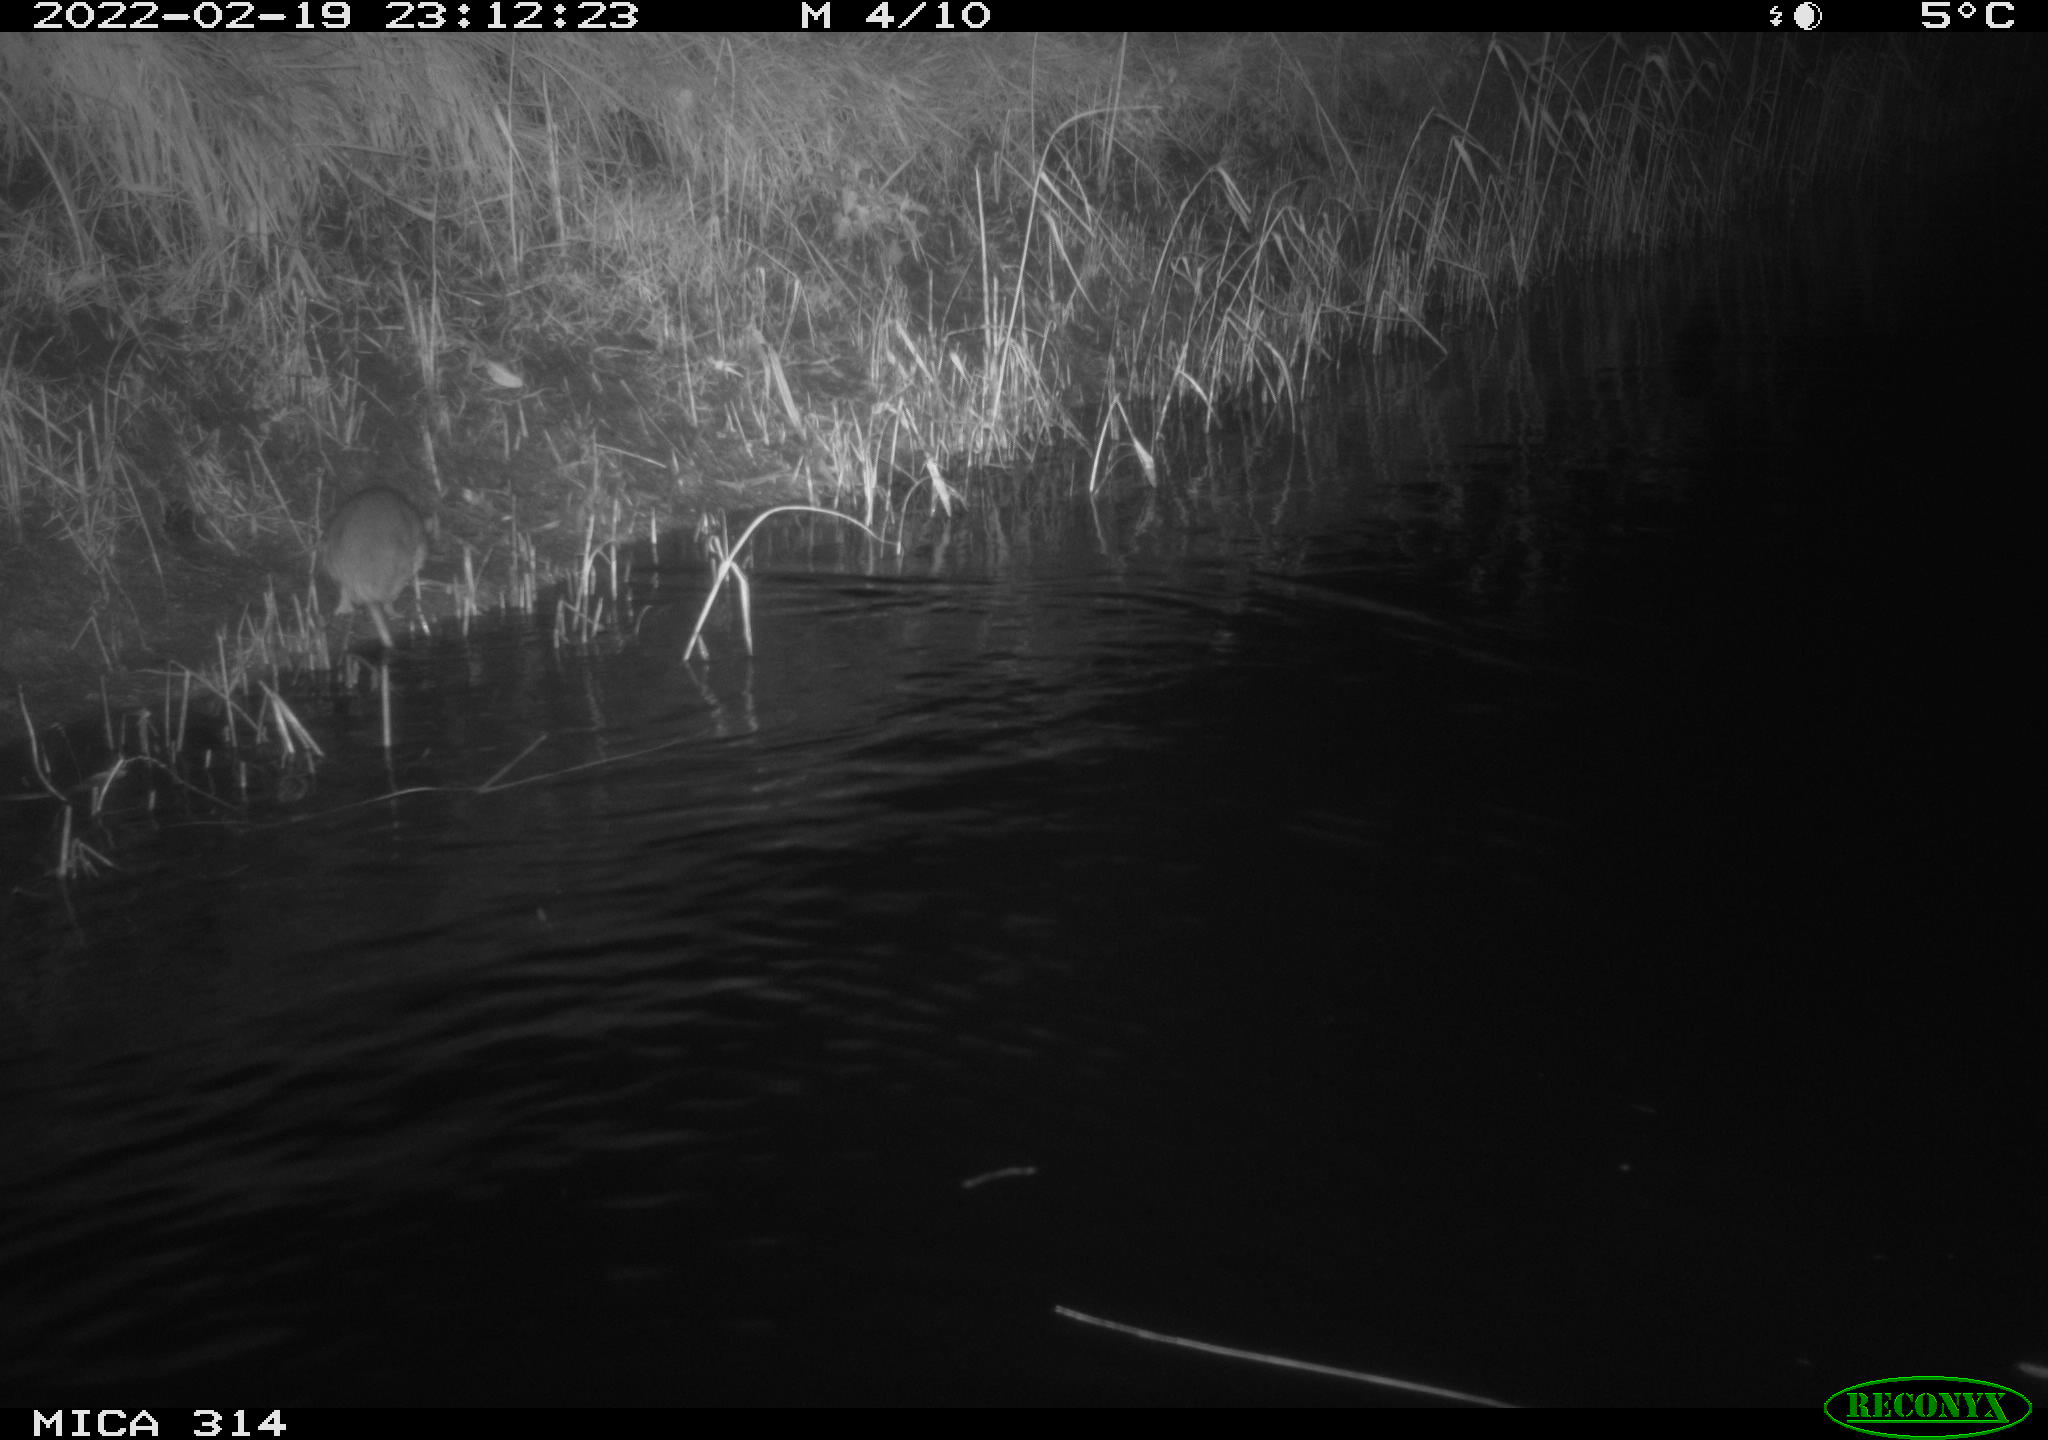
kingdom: Animalia
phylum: Chordata
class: Mammalia
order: Rodentia
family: Muridae
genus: Rattus
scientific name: Rattus norvegicus
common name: Brown rat
